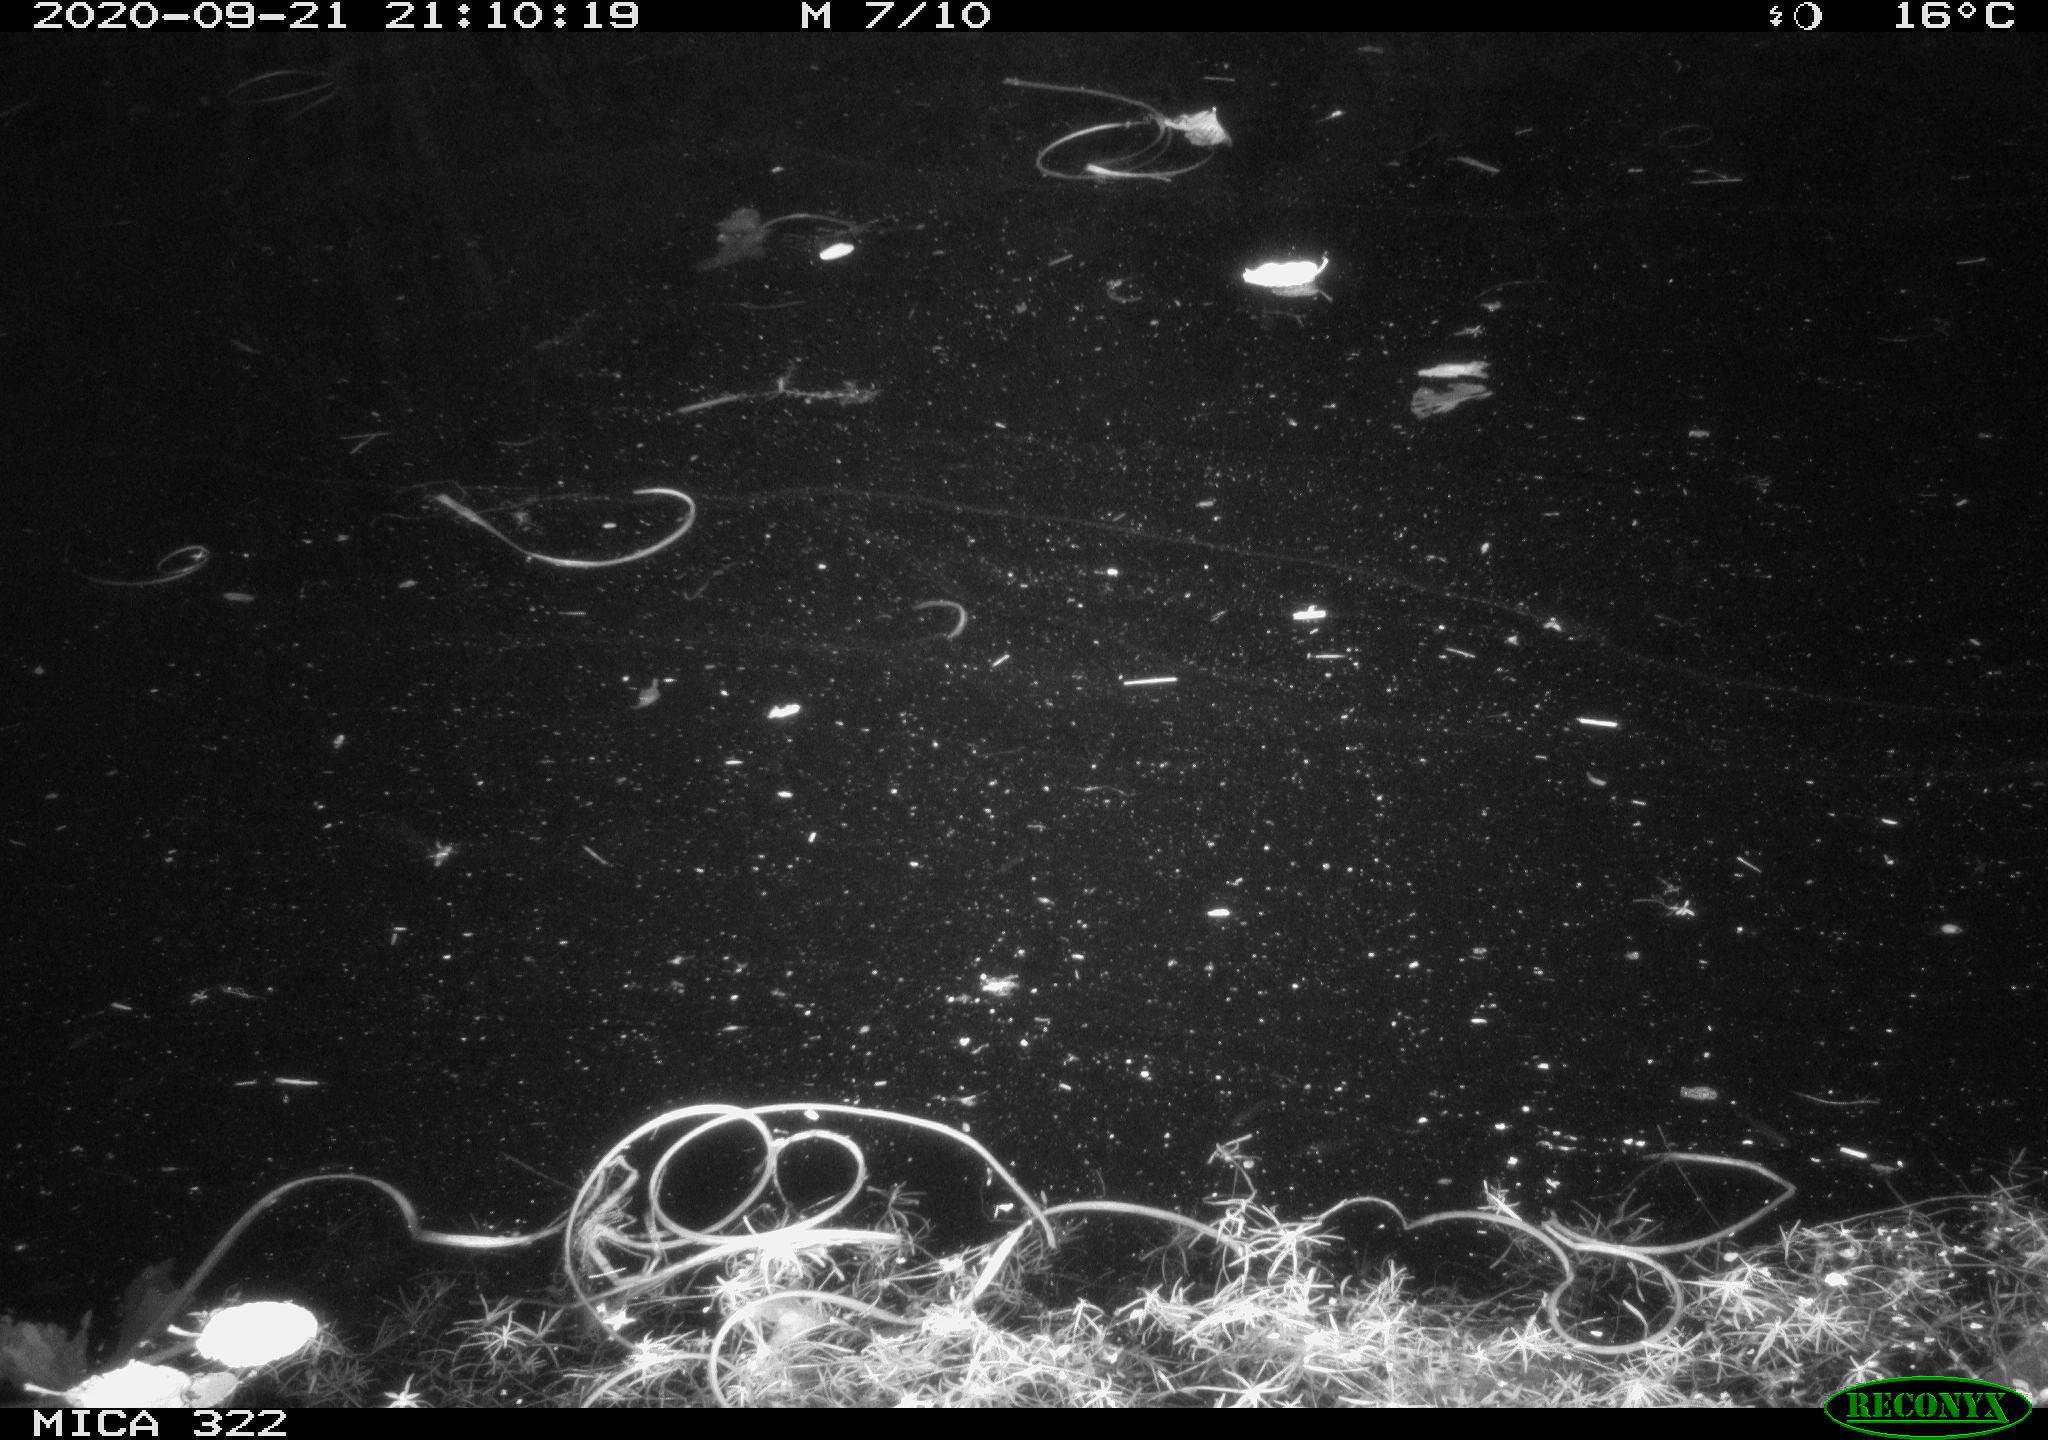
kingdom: Animalia
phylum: Chordata
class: Mammalia
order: Rodentia
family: Muridae
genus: Rattus
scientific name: Rattus norvegicus
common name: Brown rat
